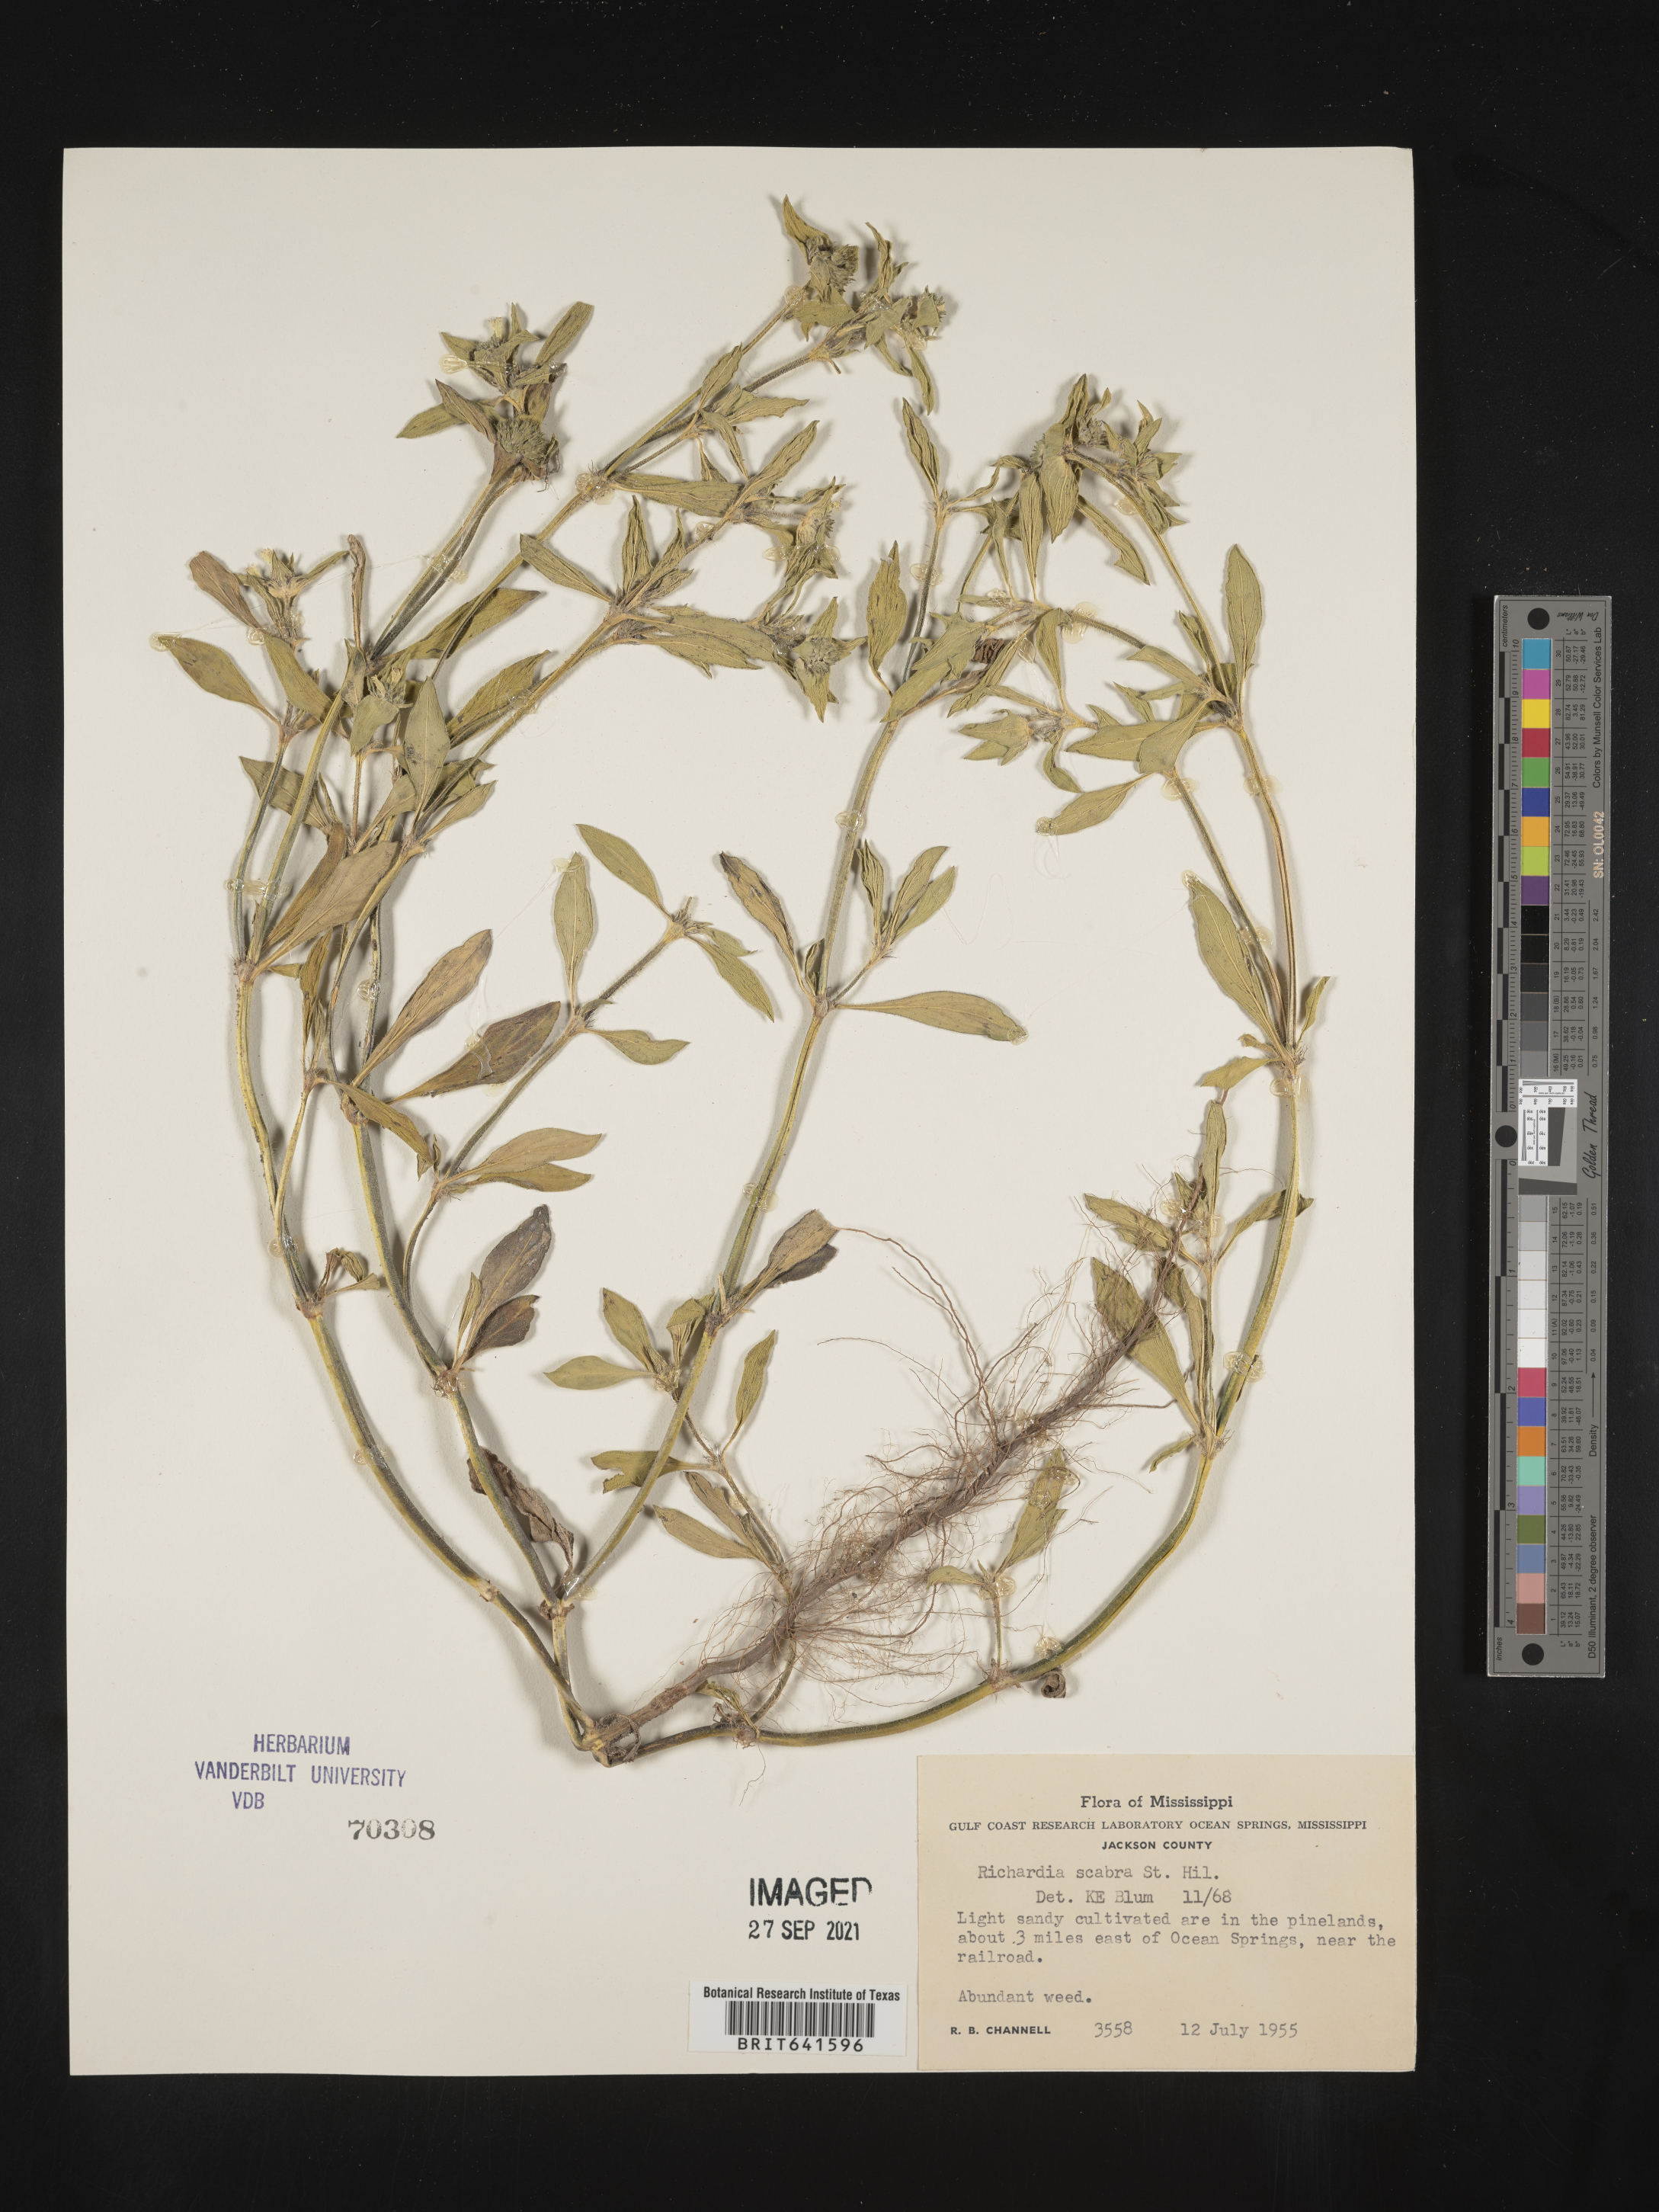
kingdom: Plantae
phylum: Tracheophyta
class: Magnoliopsida
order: Gentianales
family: Rubiaceae
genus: Richardia
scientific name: Richardia scabra
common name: Rough mexican clover
